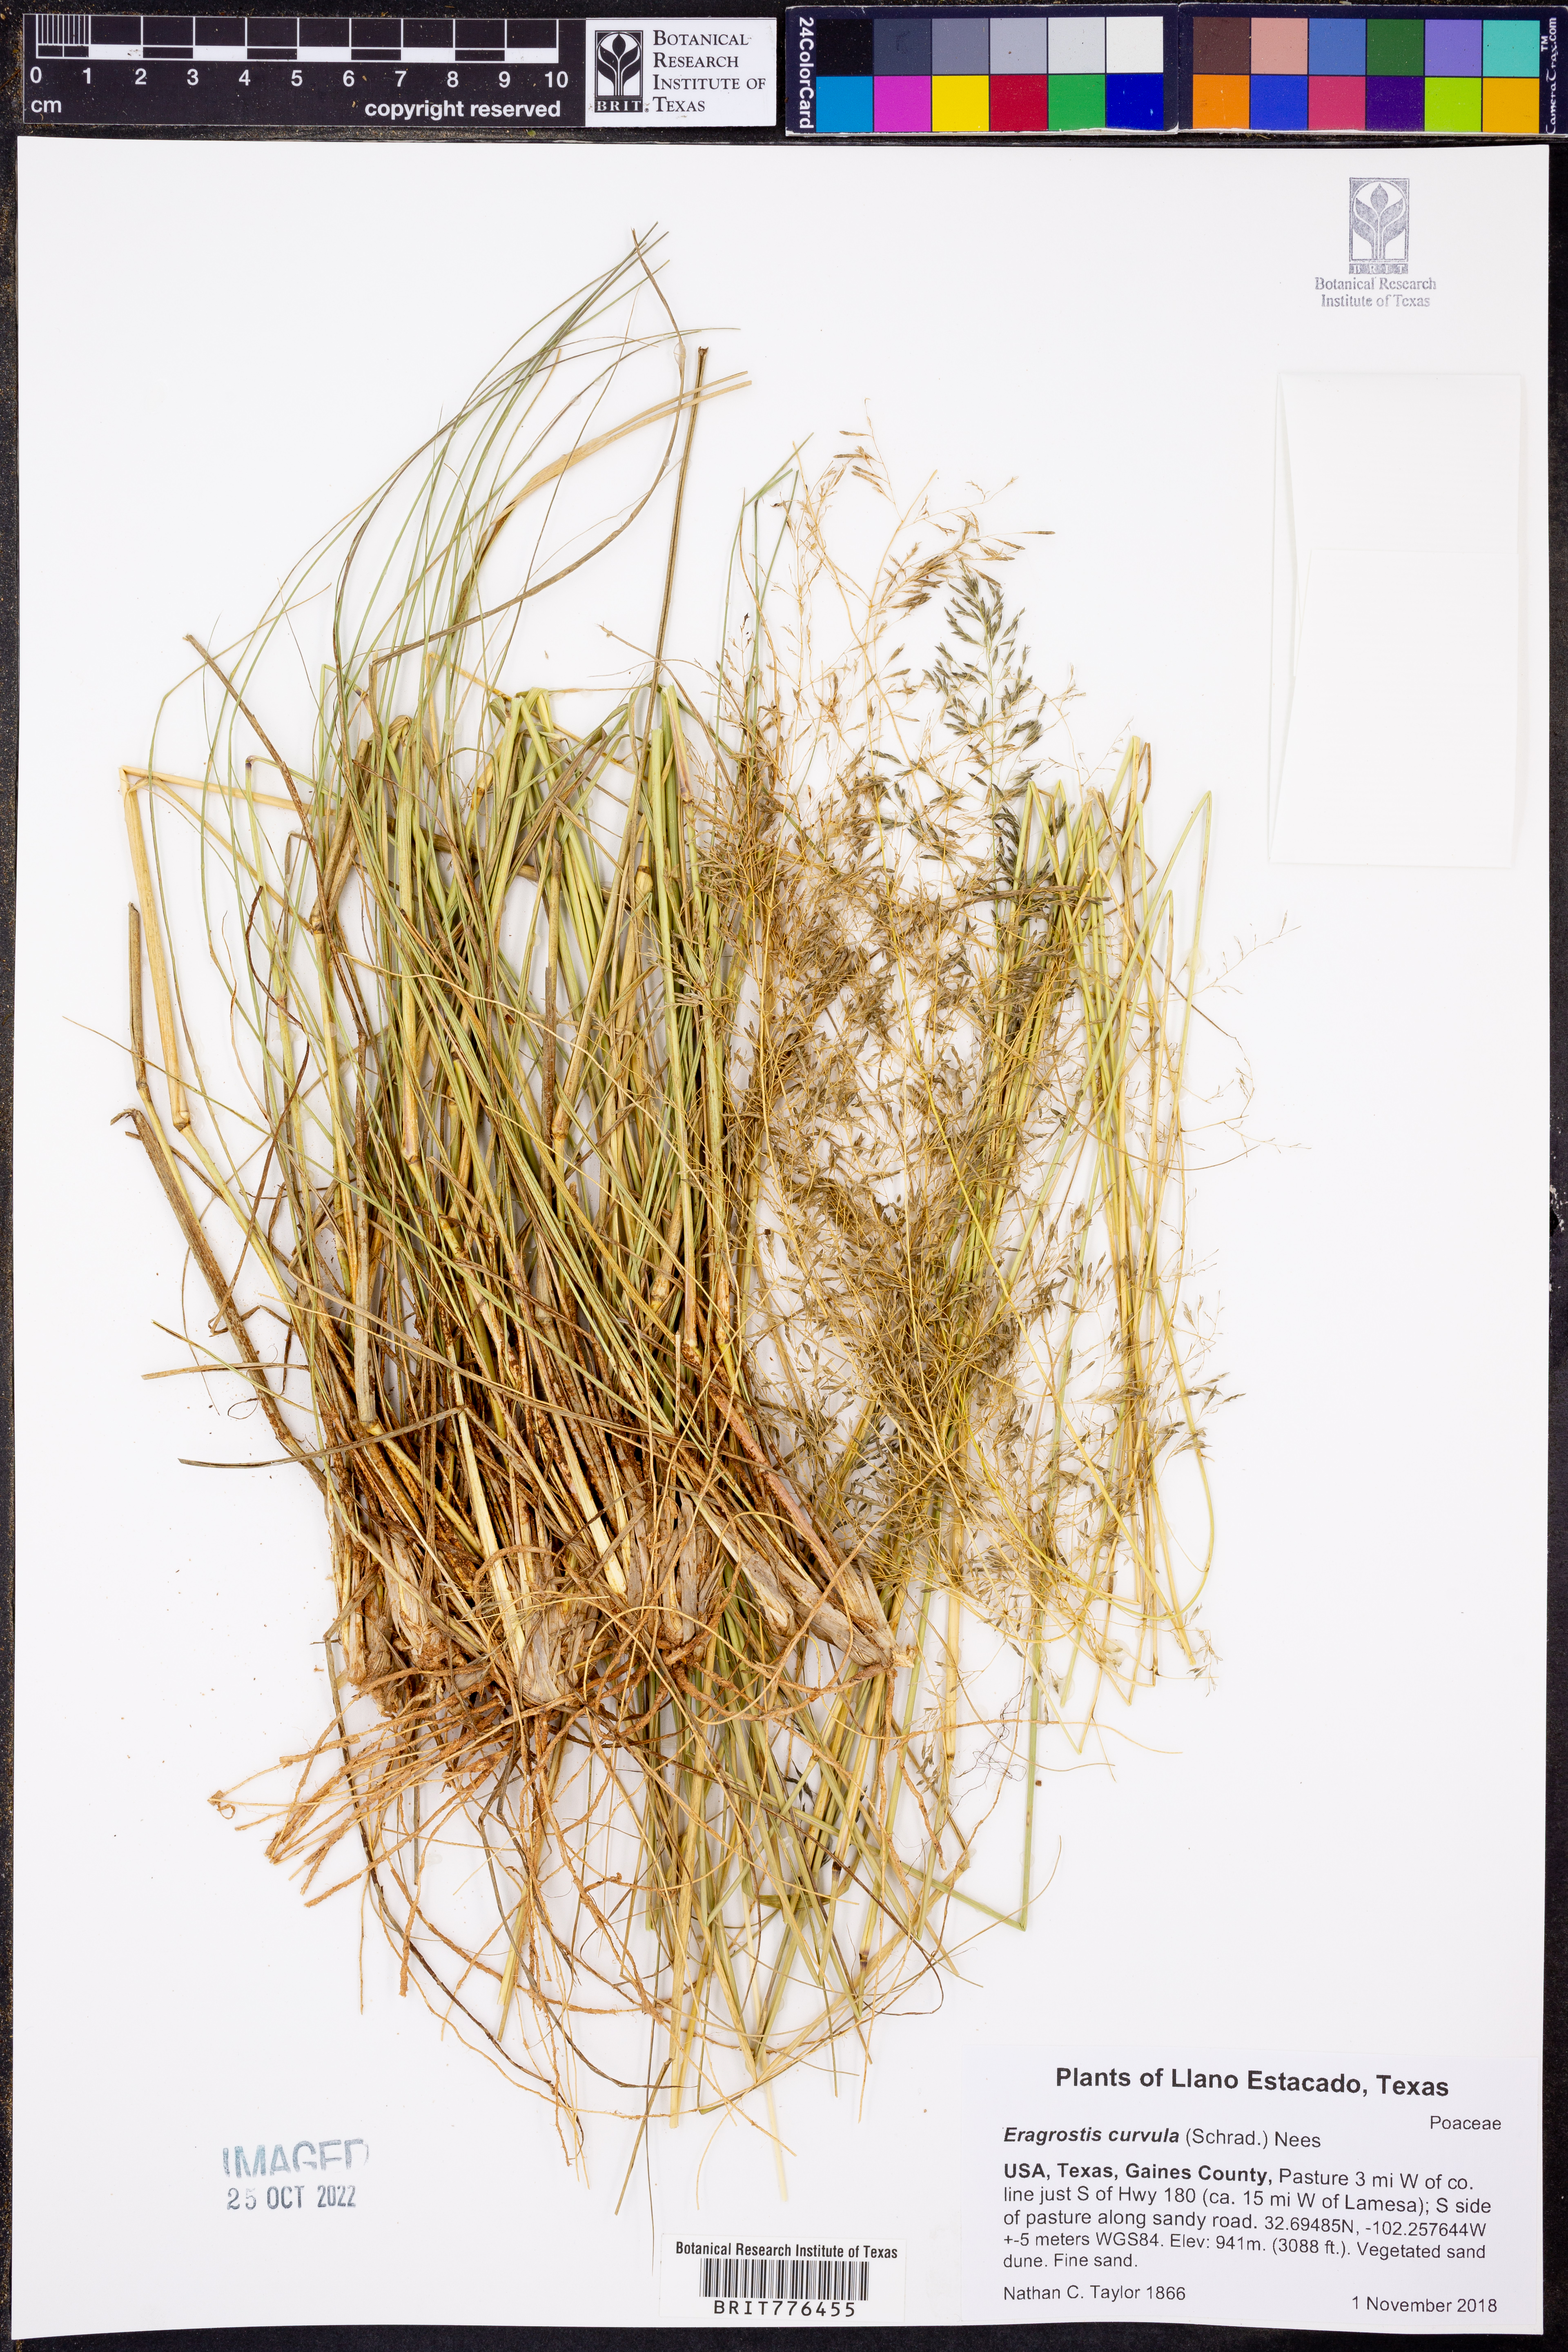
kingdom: Plantae
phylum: Tracheophyta
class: Liliopsida
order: Poales
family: Poaceae
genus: Eragrostis
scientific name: Eragrostis curvula
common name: African love-grass
